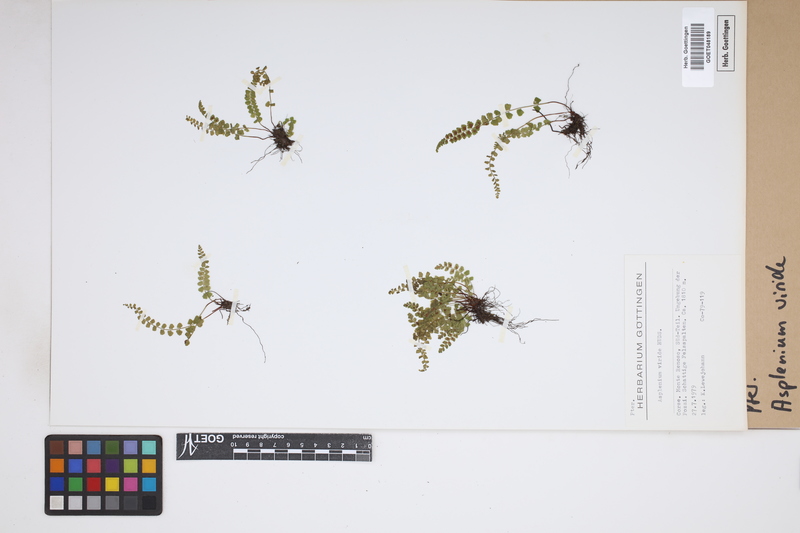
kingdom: Plantae
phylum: Tracheophyta
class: Polypodiopsida
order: Polypodiales
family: Aspleniaceae
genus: Asplenium
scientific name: Asplenium viride
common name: Green spleenwort
